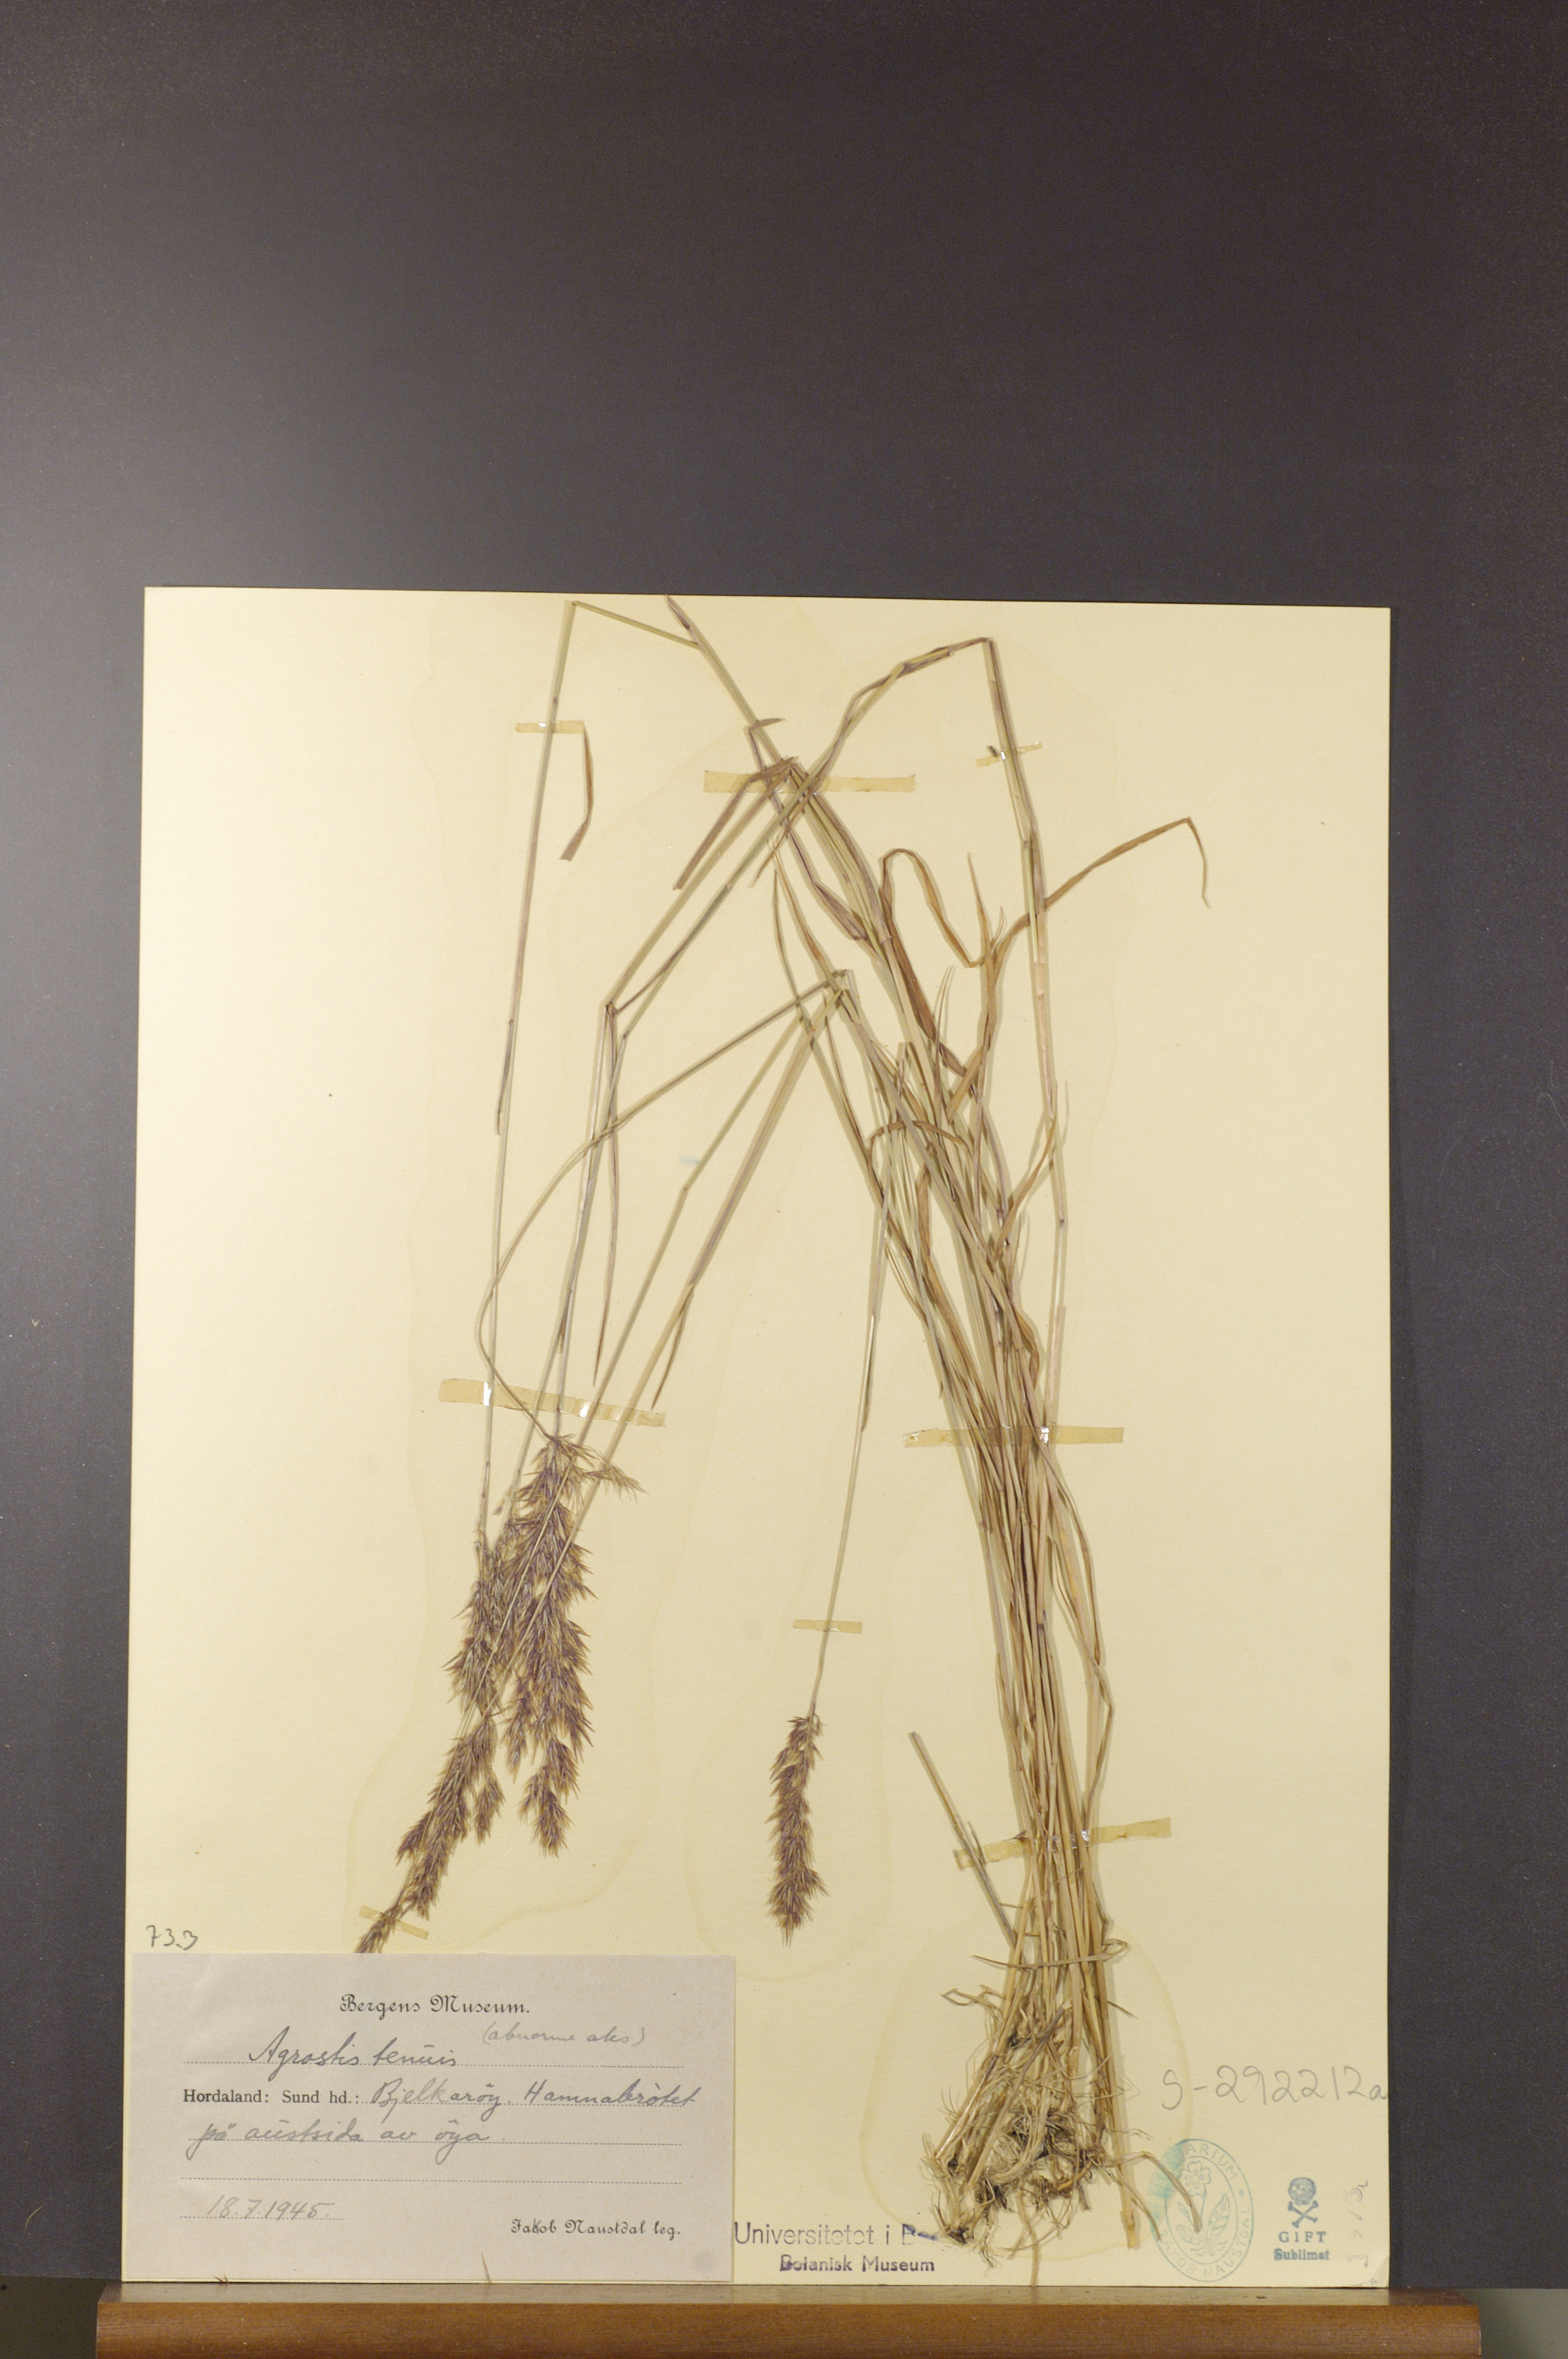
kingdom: Plantae
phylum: Tracheophyta
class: Liliopsida
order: Poales
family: Poaceae
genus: Agrostis
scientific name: Agrostis capillaris
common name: Colonial bentgrass
